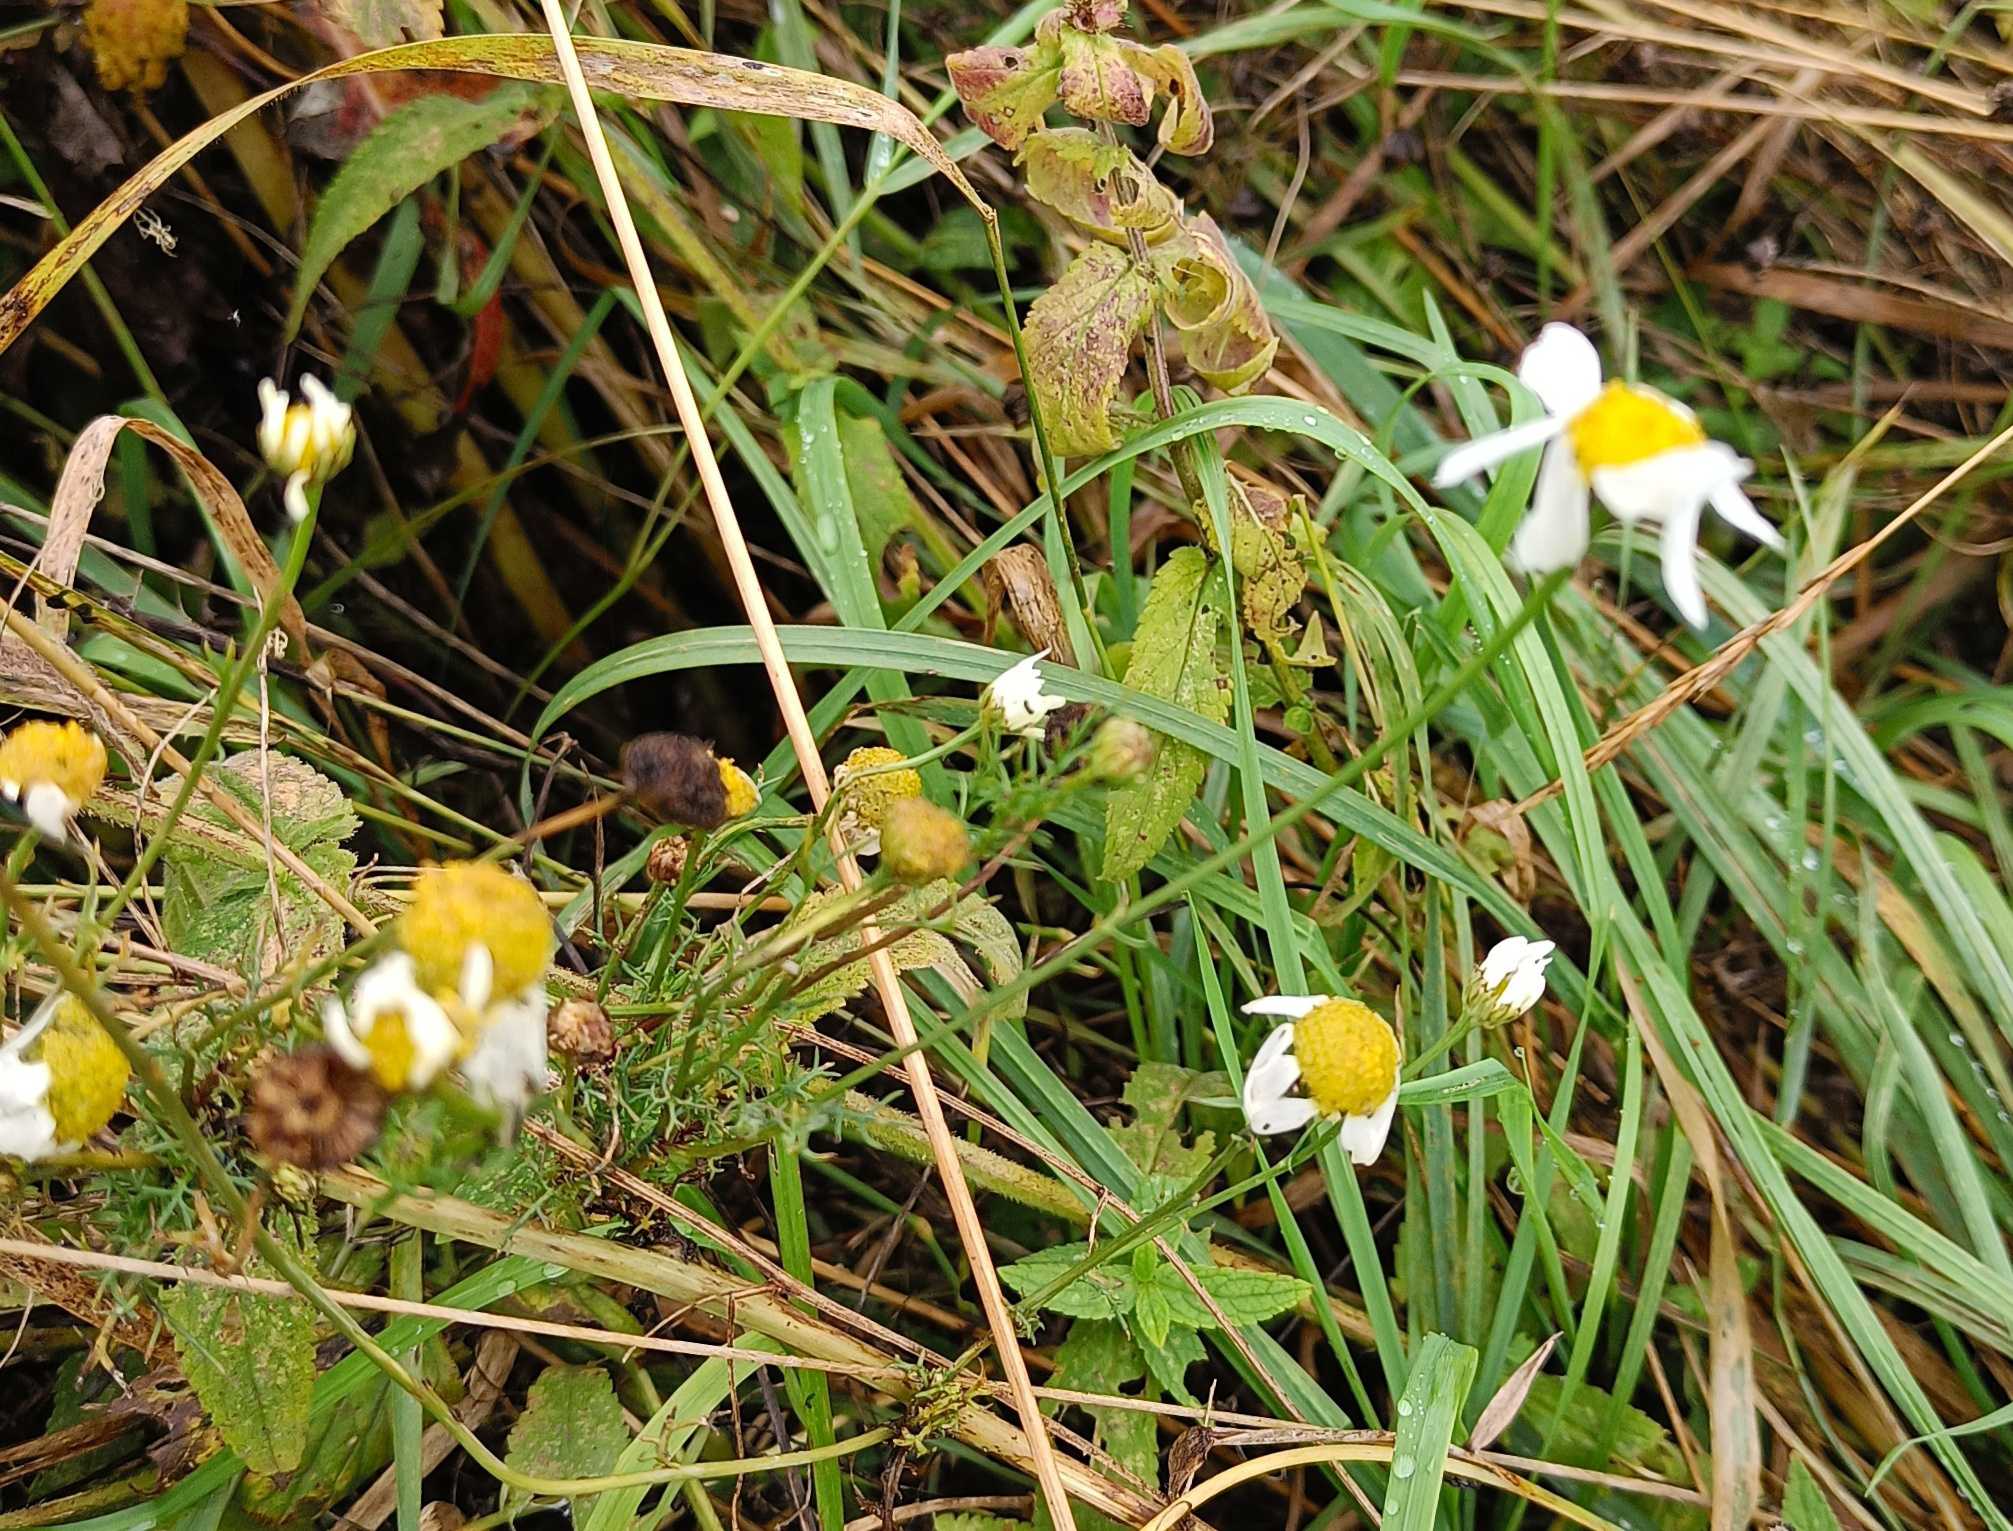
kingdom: Plantae
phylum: Tracheophyta
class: Magnoliopsida
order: Asterales
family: Asteraceae
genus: Tripleurospermum
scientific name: Tripleurospermum inodorum
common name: Lugtløs kamille
